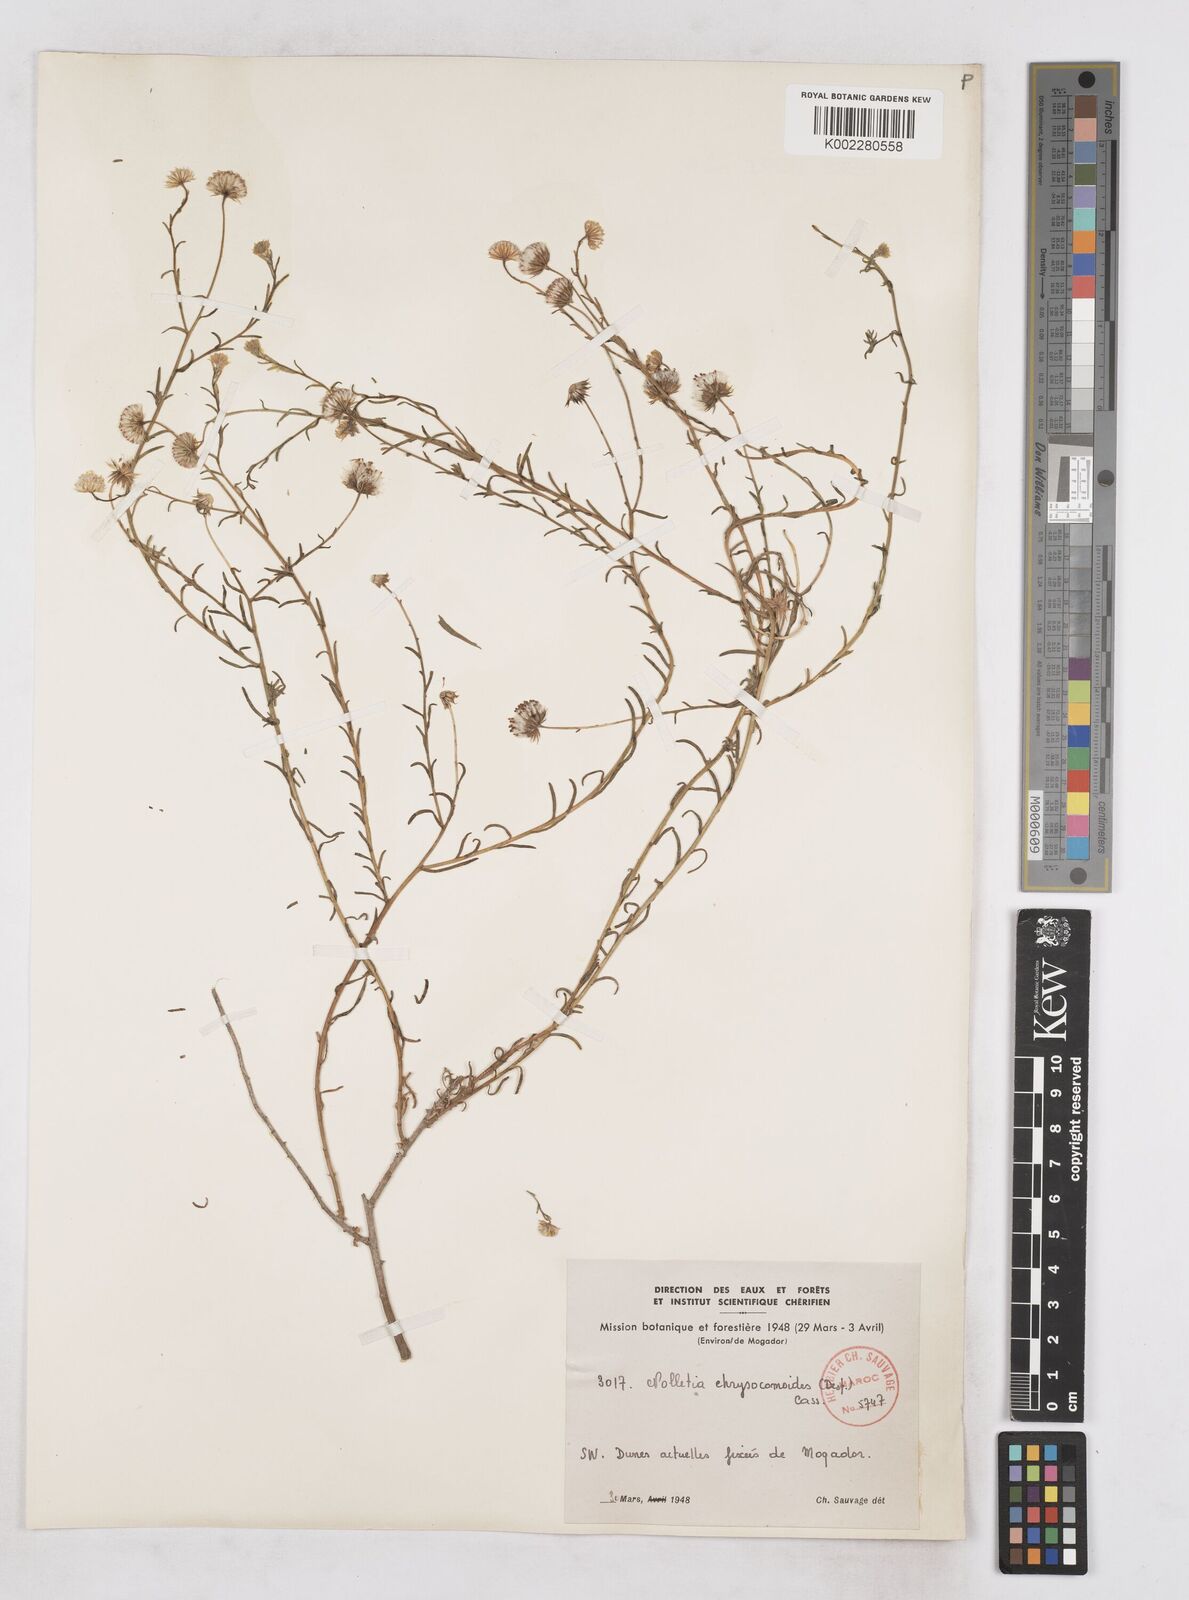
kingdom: Plantae
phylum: Tracheophyta
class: Magnoliopsida
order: Asterales
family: Asteraceae
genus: Nolletia
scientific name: Nolletia chrysocomoides
